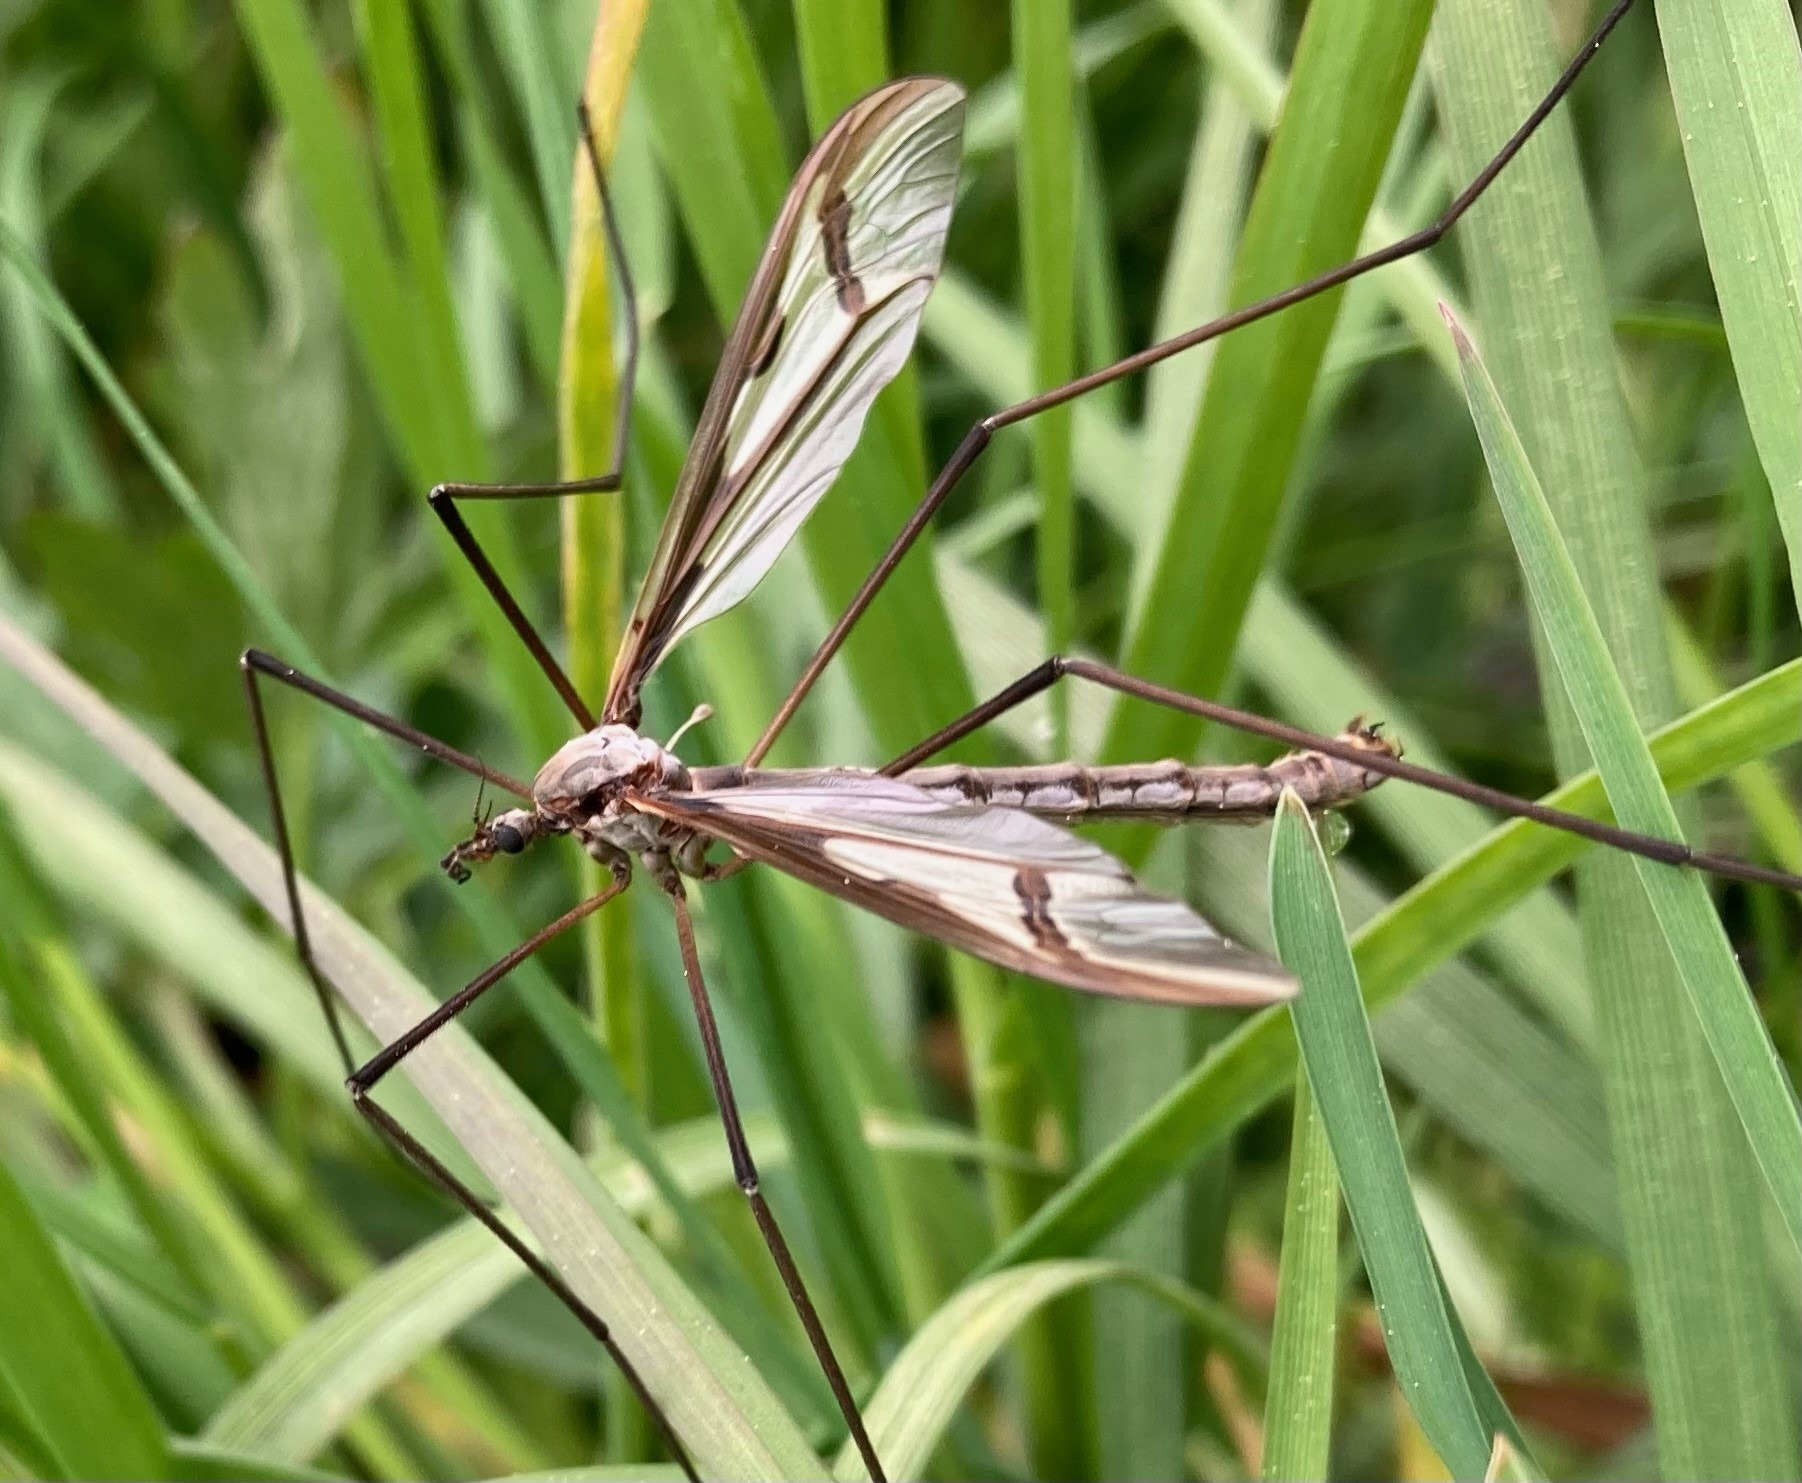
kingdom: Animalia
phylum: Arthropoda
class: Insecta
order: Diptera
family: Pediciidae
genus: Pedicia
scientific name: Pedicia rivosa
